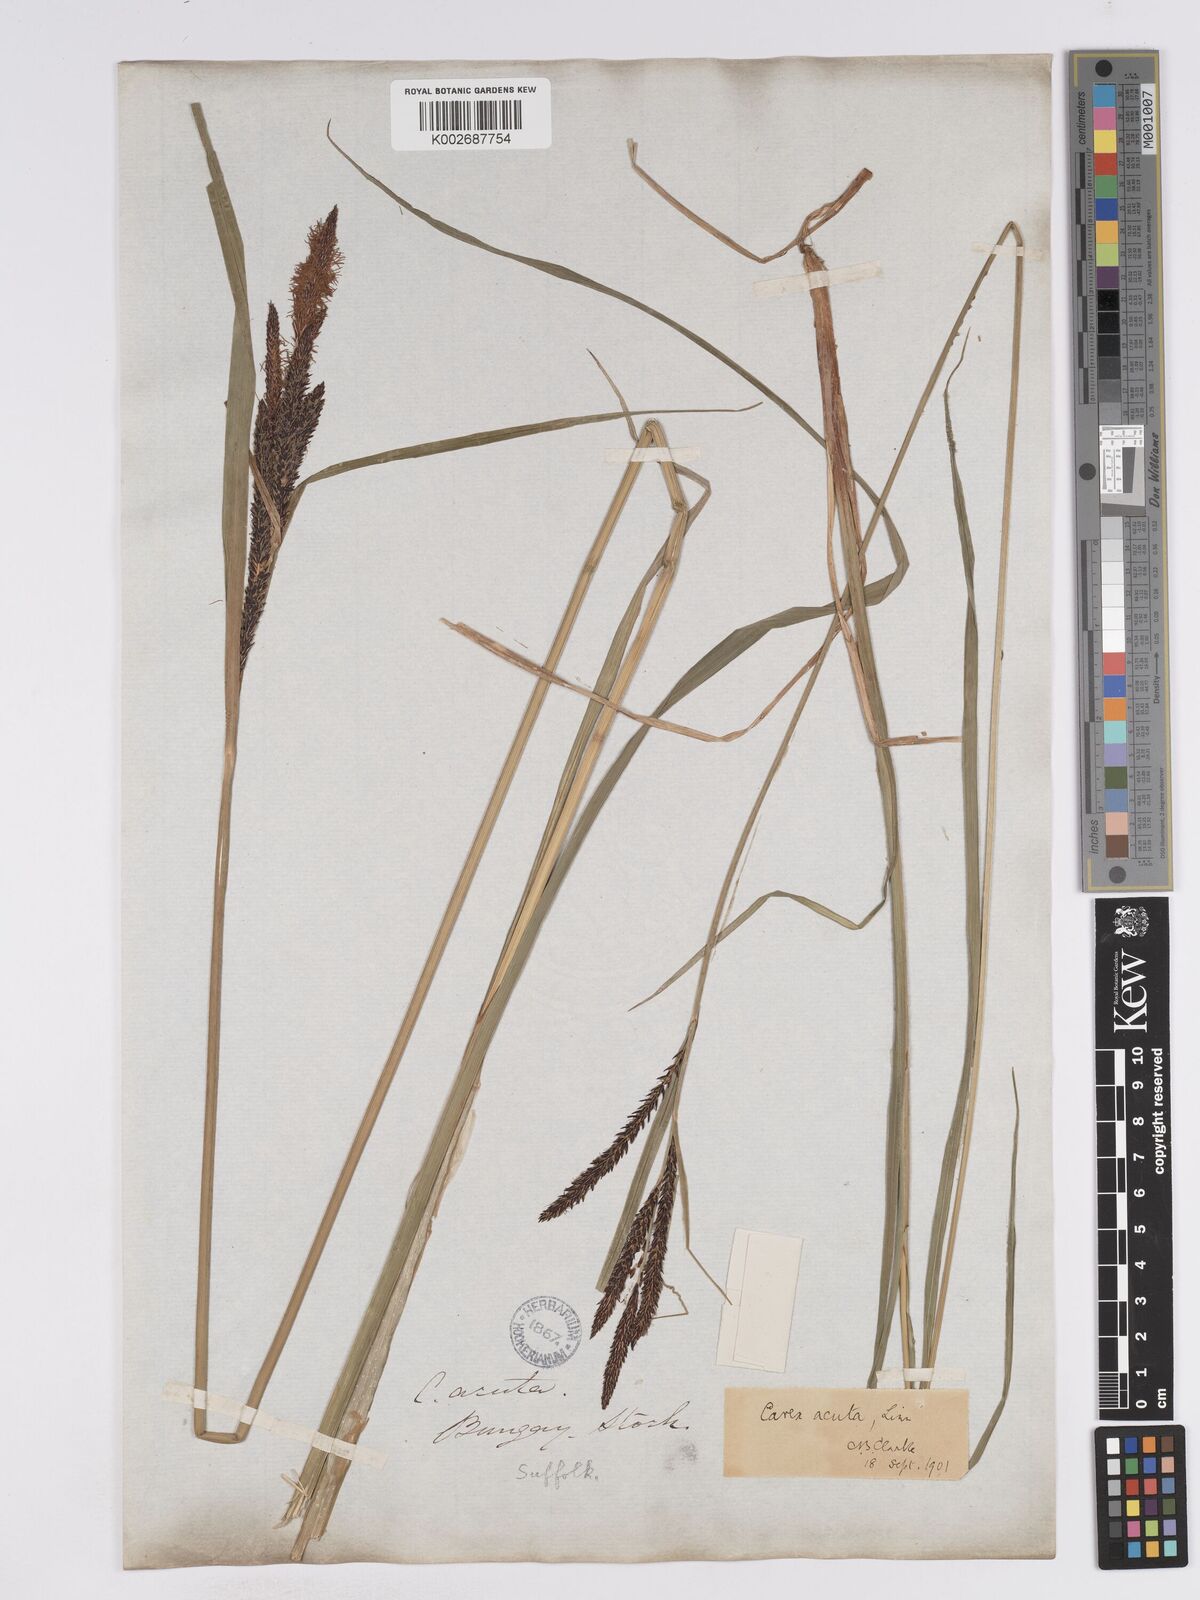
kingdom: Plantae
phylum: Tracheophyta
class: Liliopsida
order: Poales
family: Cyperaceae
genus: Carex
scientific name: Carex acuta
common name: Slender tufted-sedge
